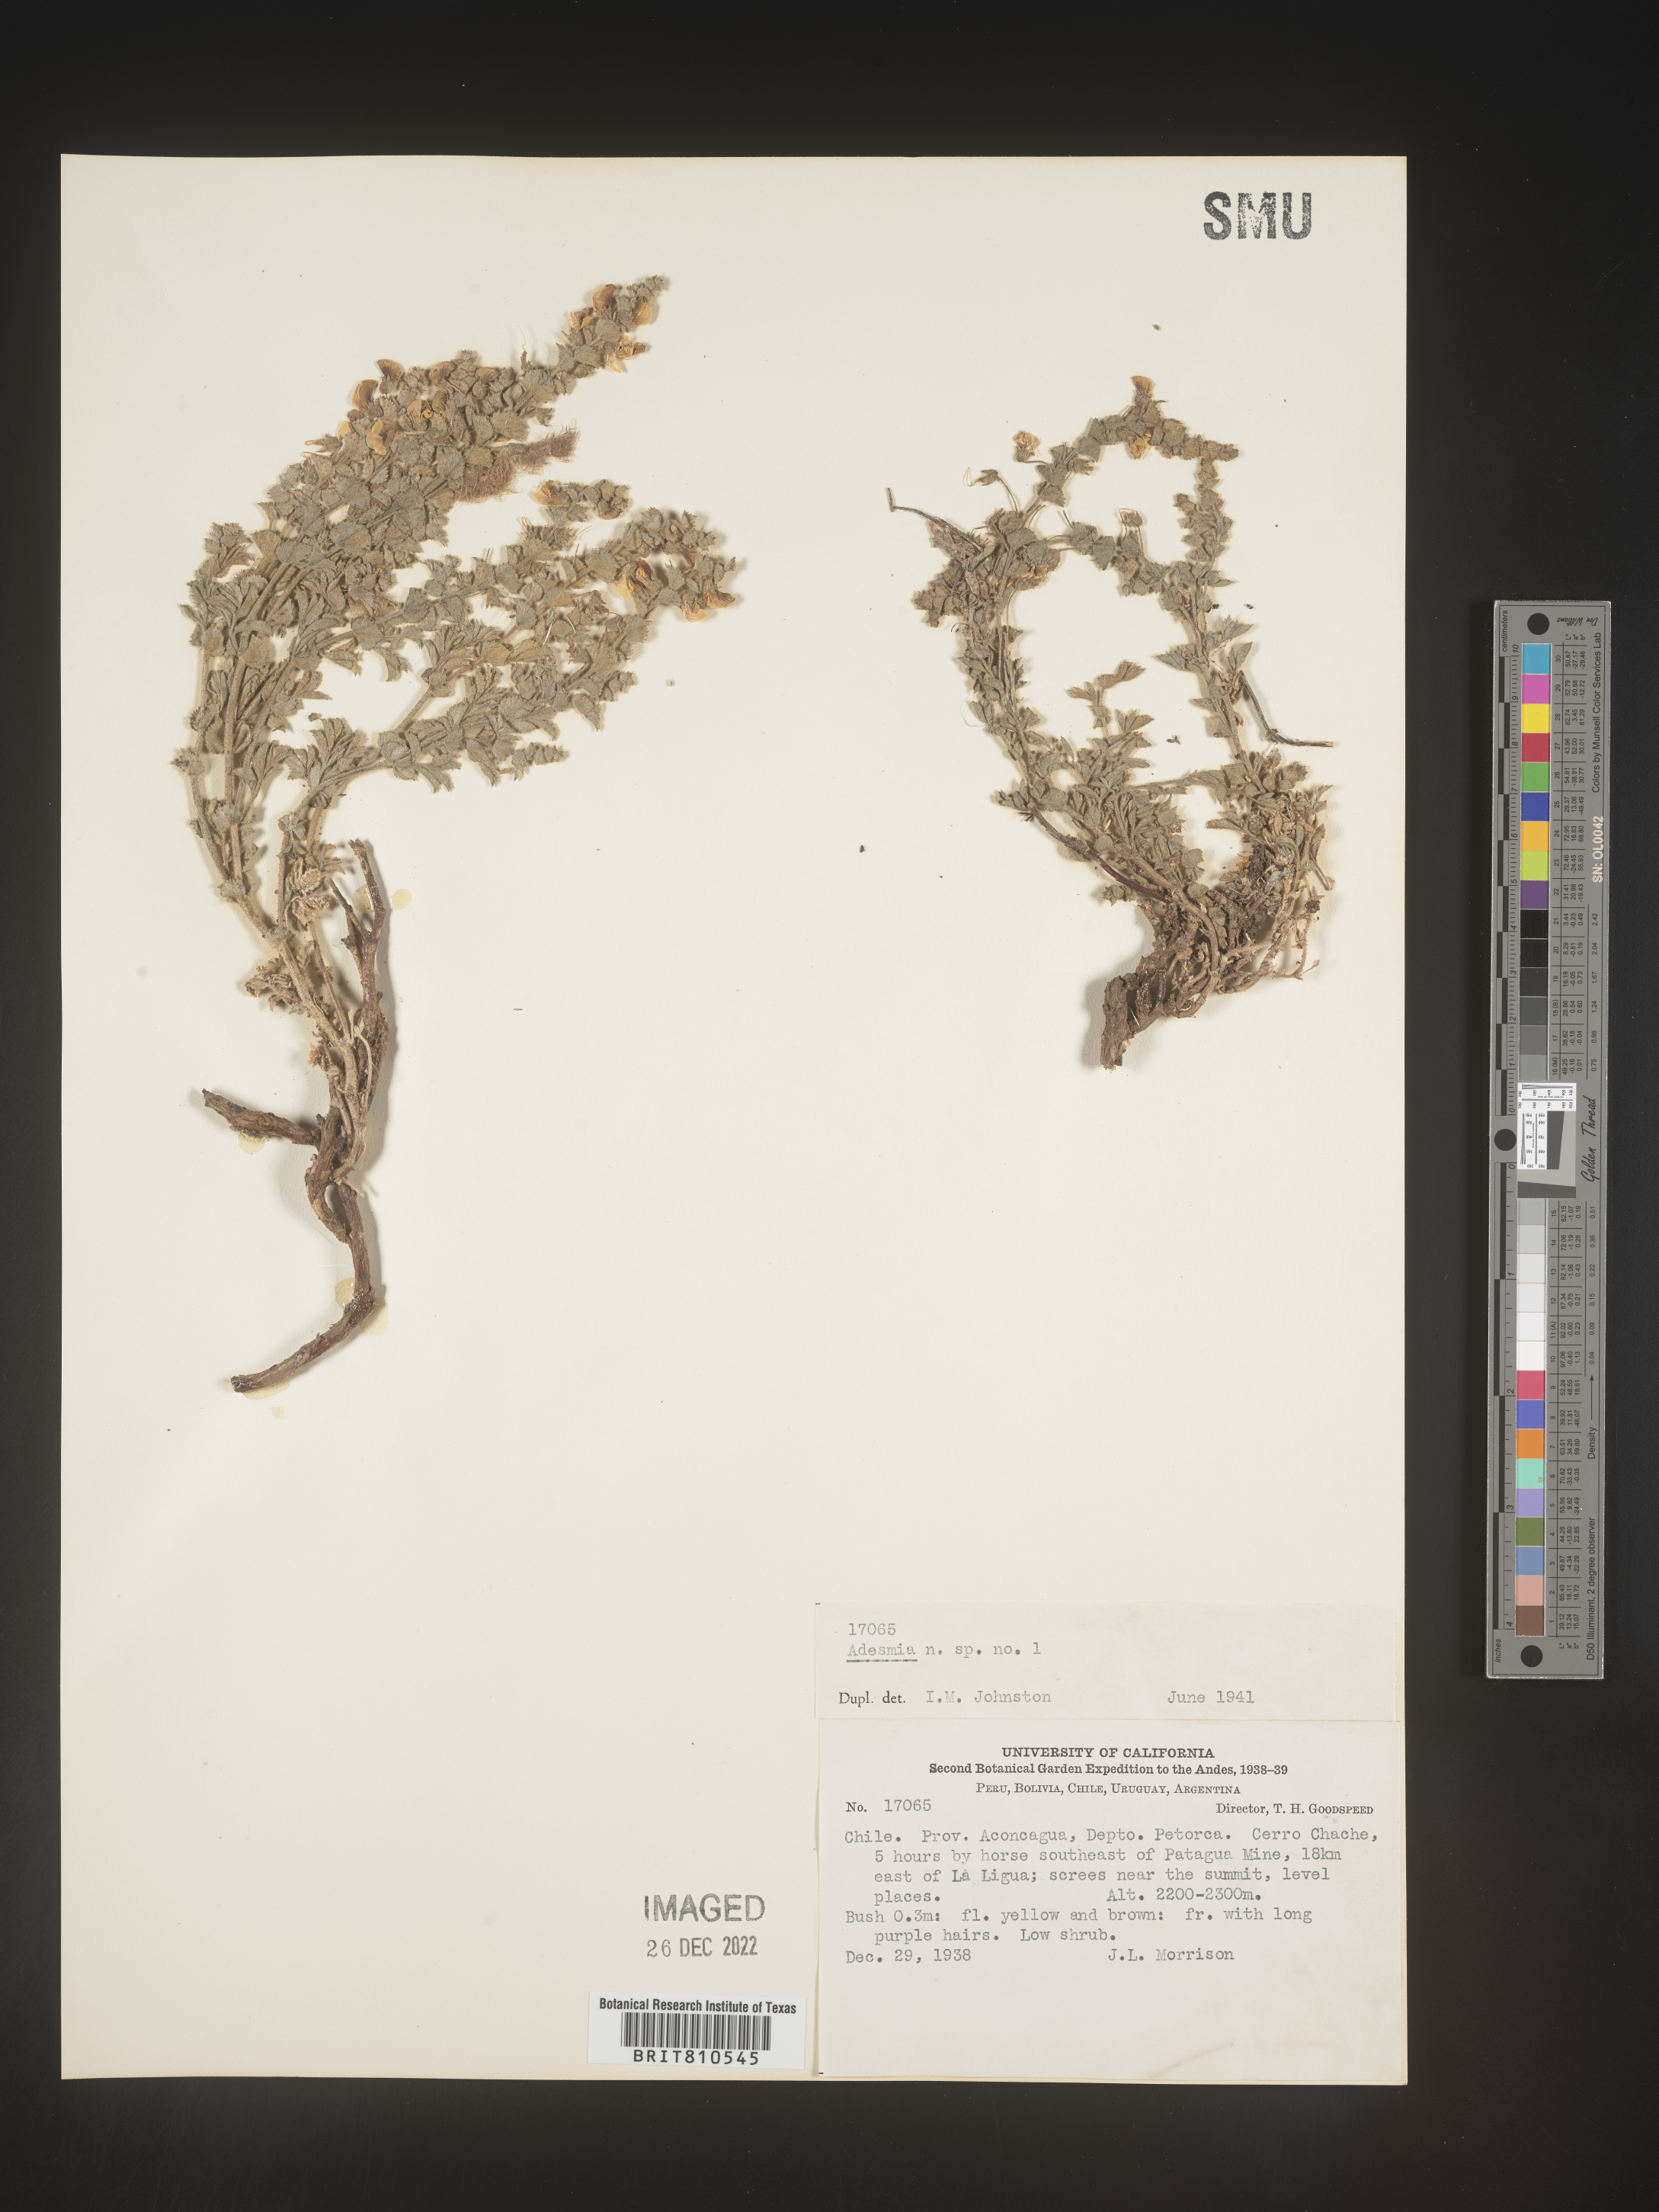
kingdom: Plantae
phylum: Tracheophyta
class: Magnoliopsida
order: Fabales
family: Fabaceae
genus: Adesmia
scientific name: Adesmia
